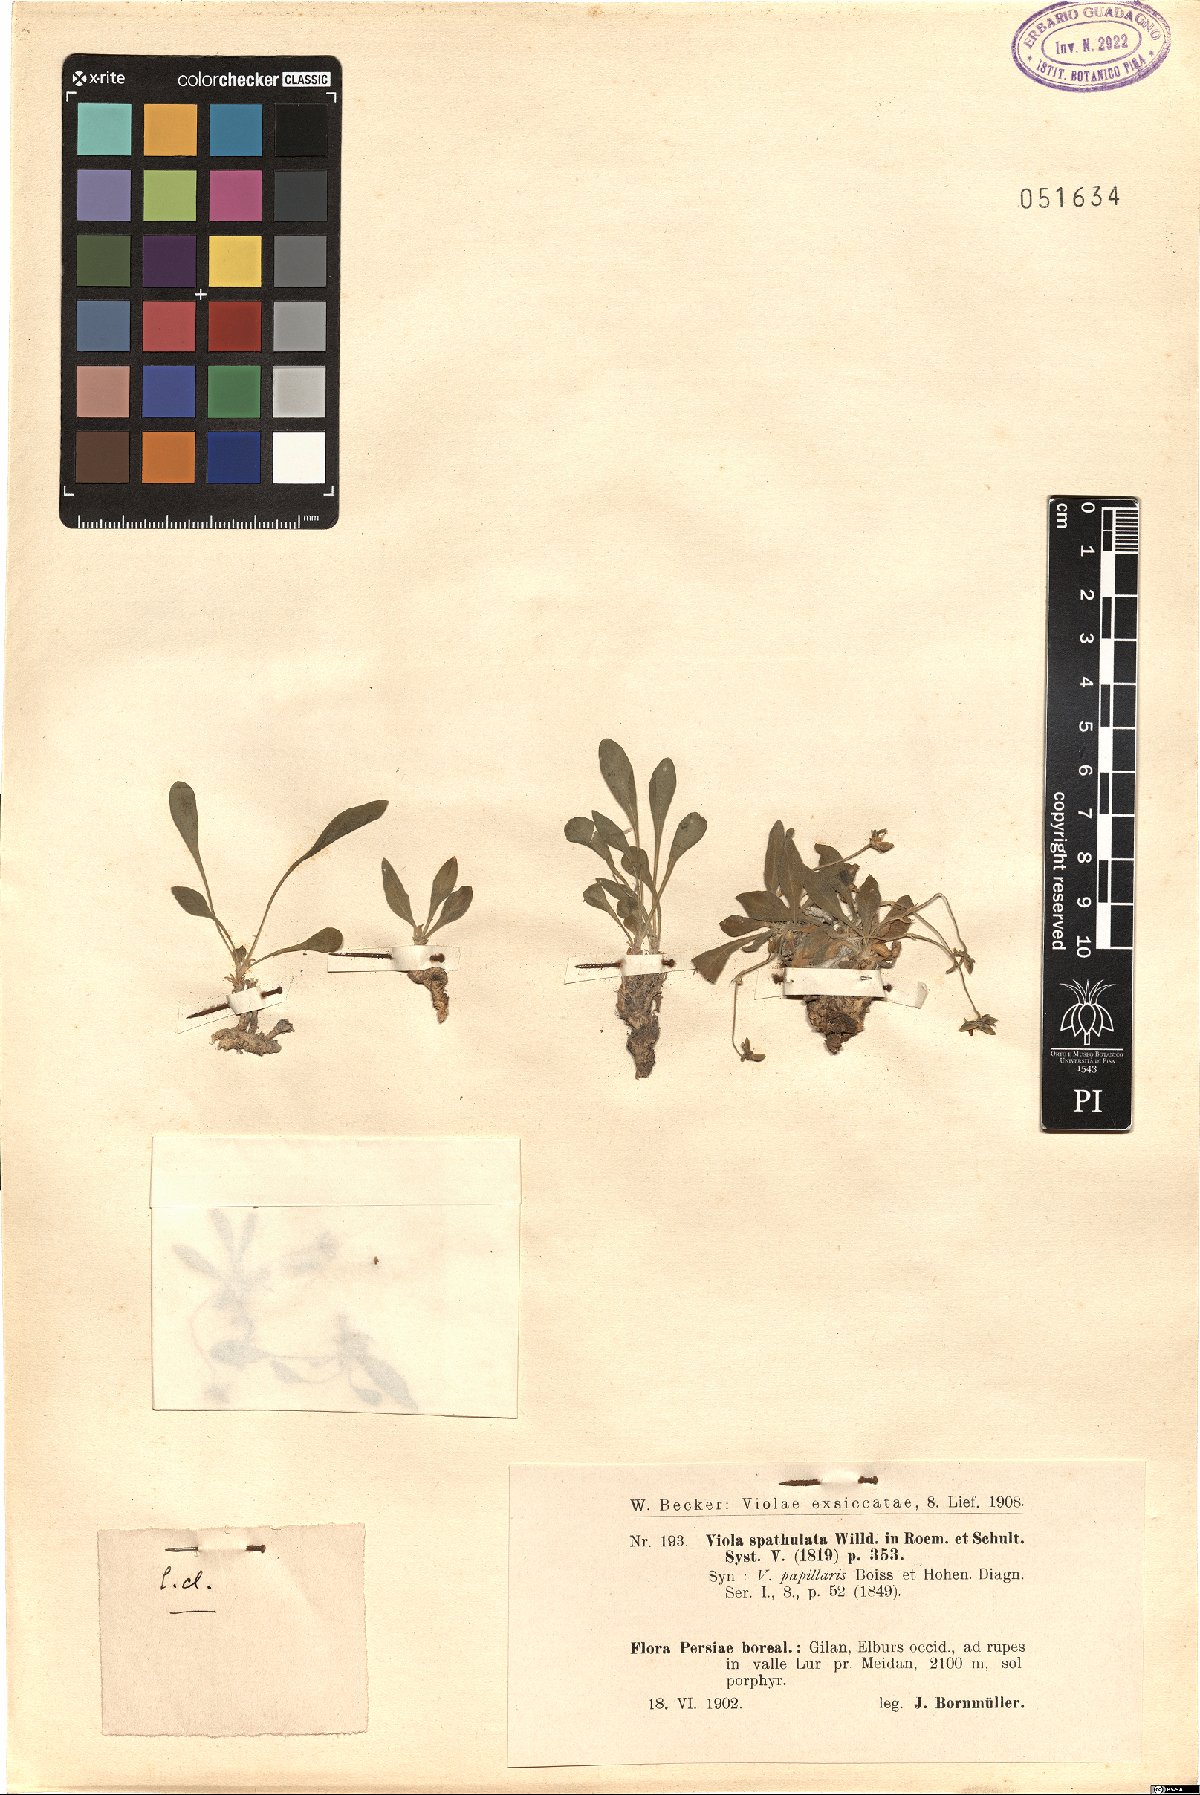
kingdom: Plantae
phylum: Tracheophyta
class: Magnoliopsida
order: Malpighiales
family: Violaceae
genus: Viola
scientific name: Viola spathulata
